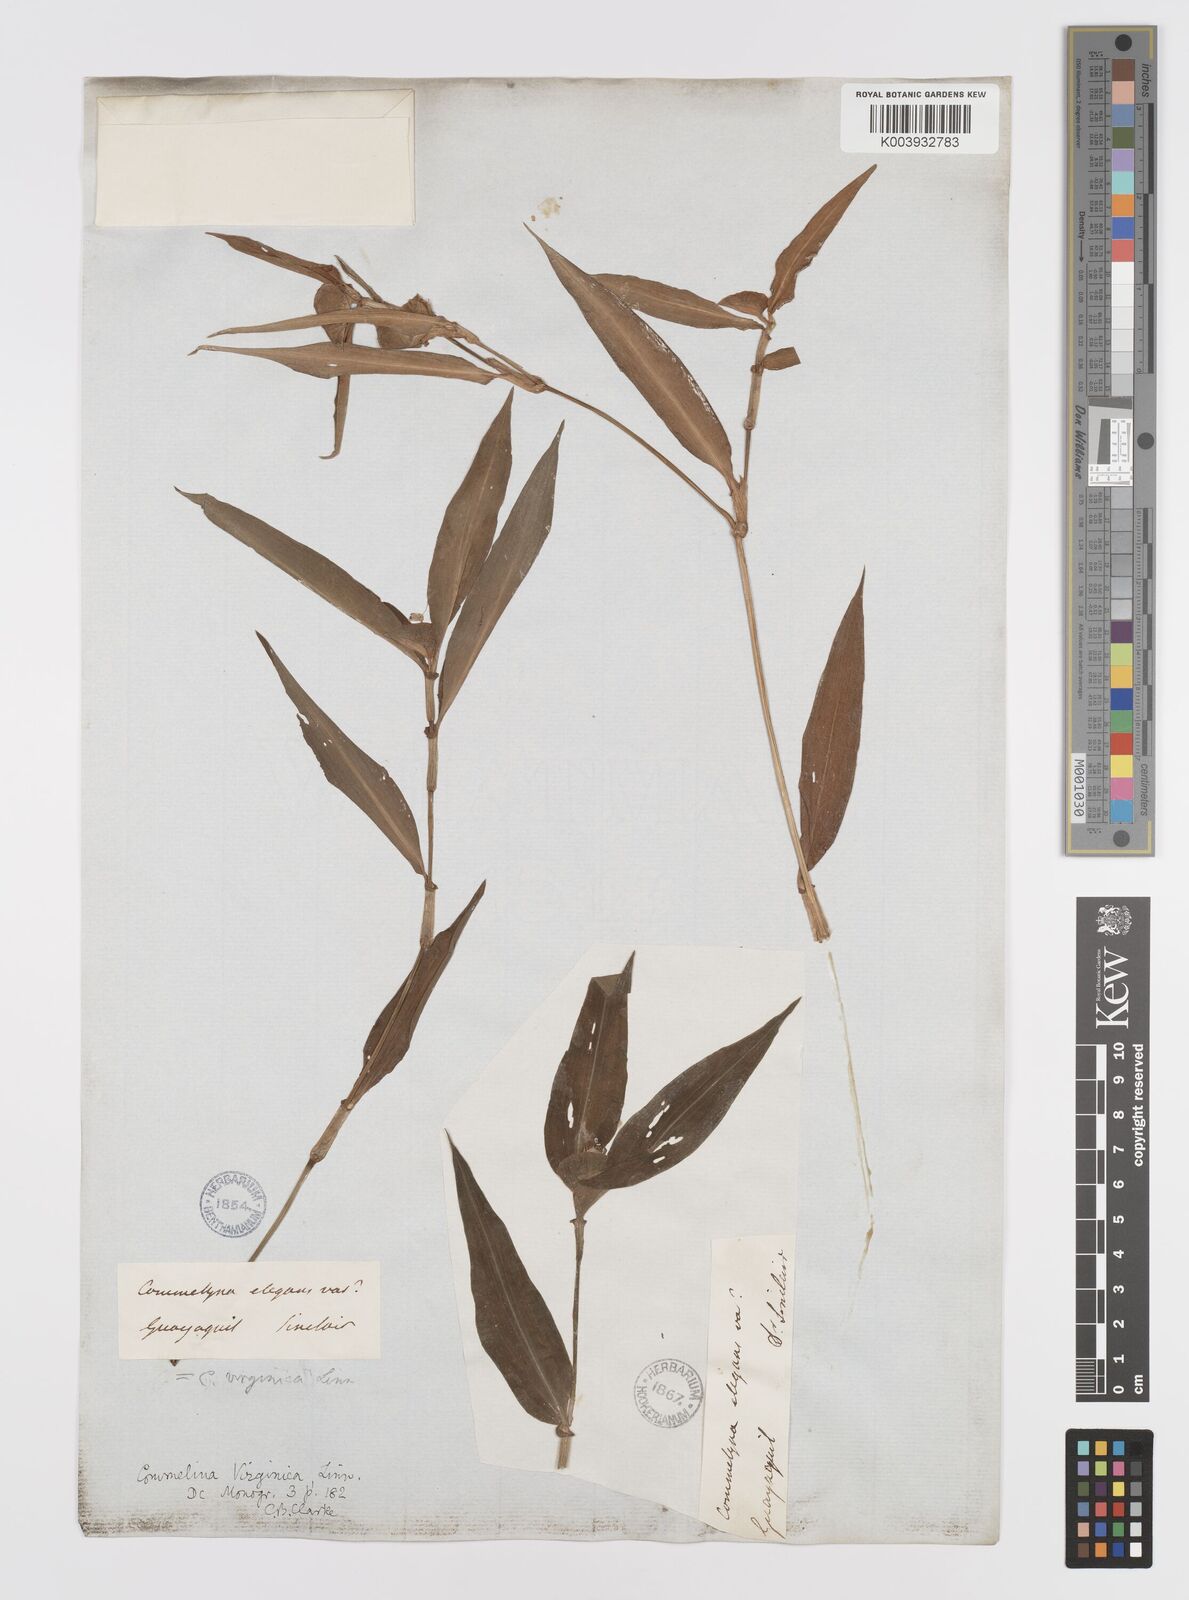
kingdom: Plantae
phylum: Tracheophyta
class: Liliopsida
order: Commelinales
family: Commelinaceae
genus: Commelina
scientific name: Commelina virginica
